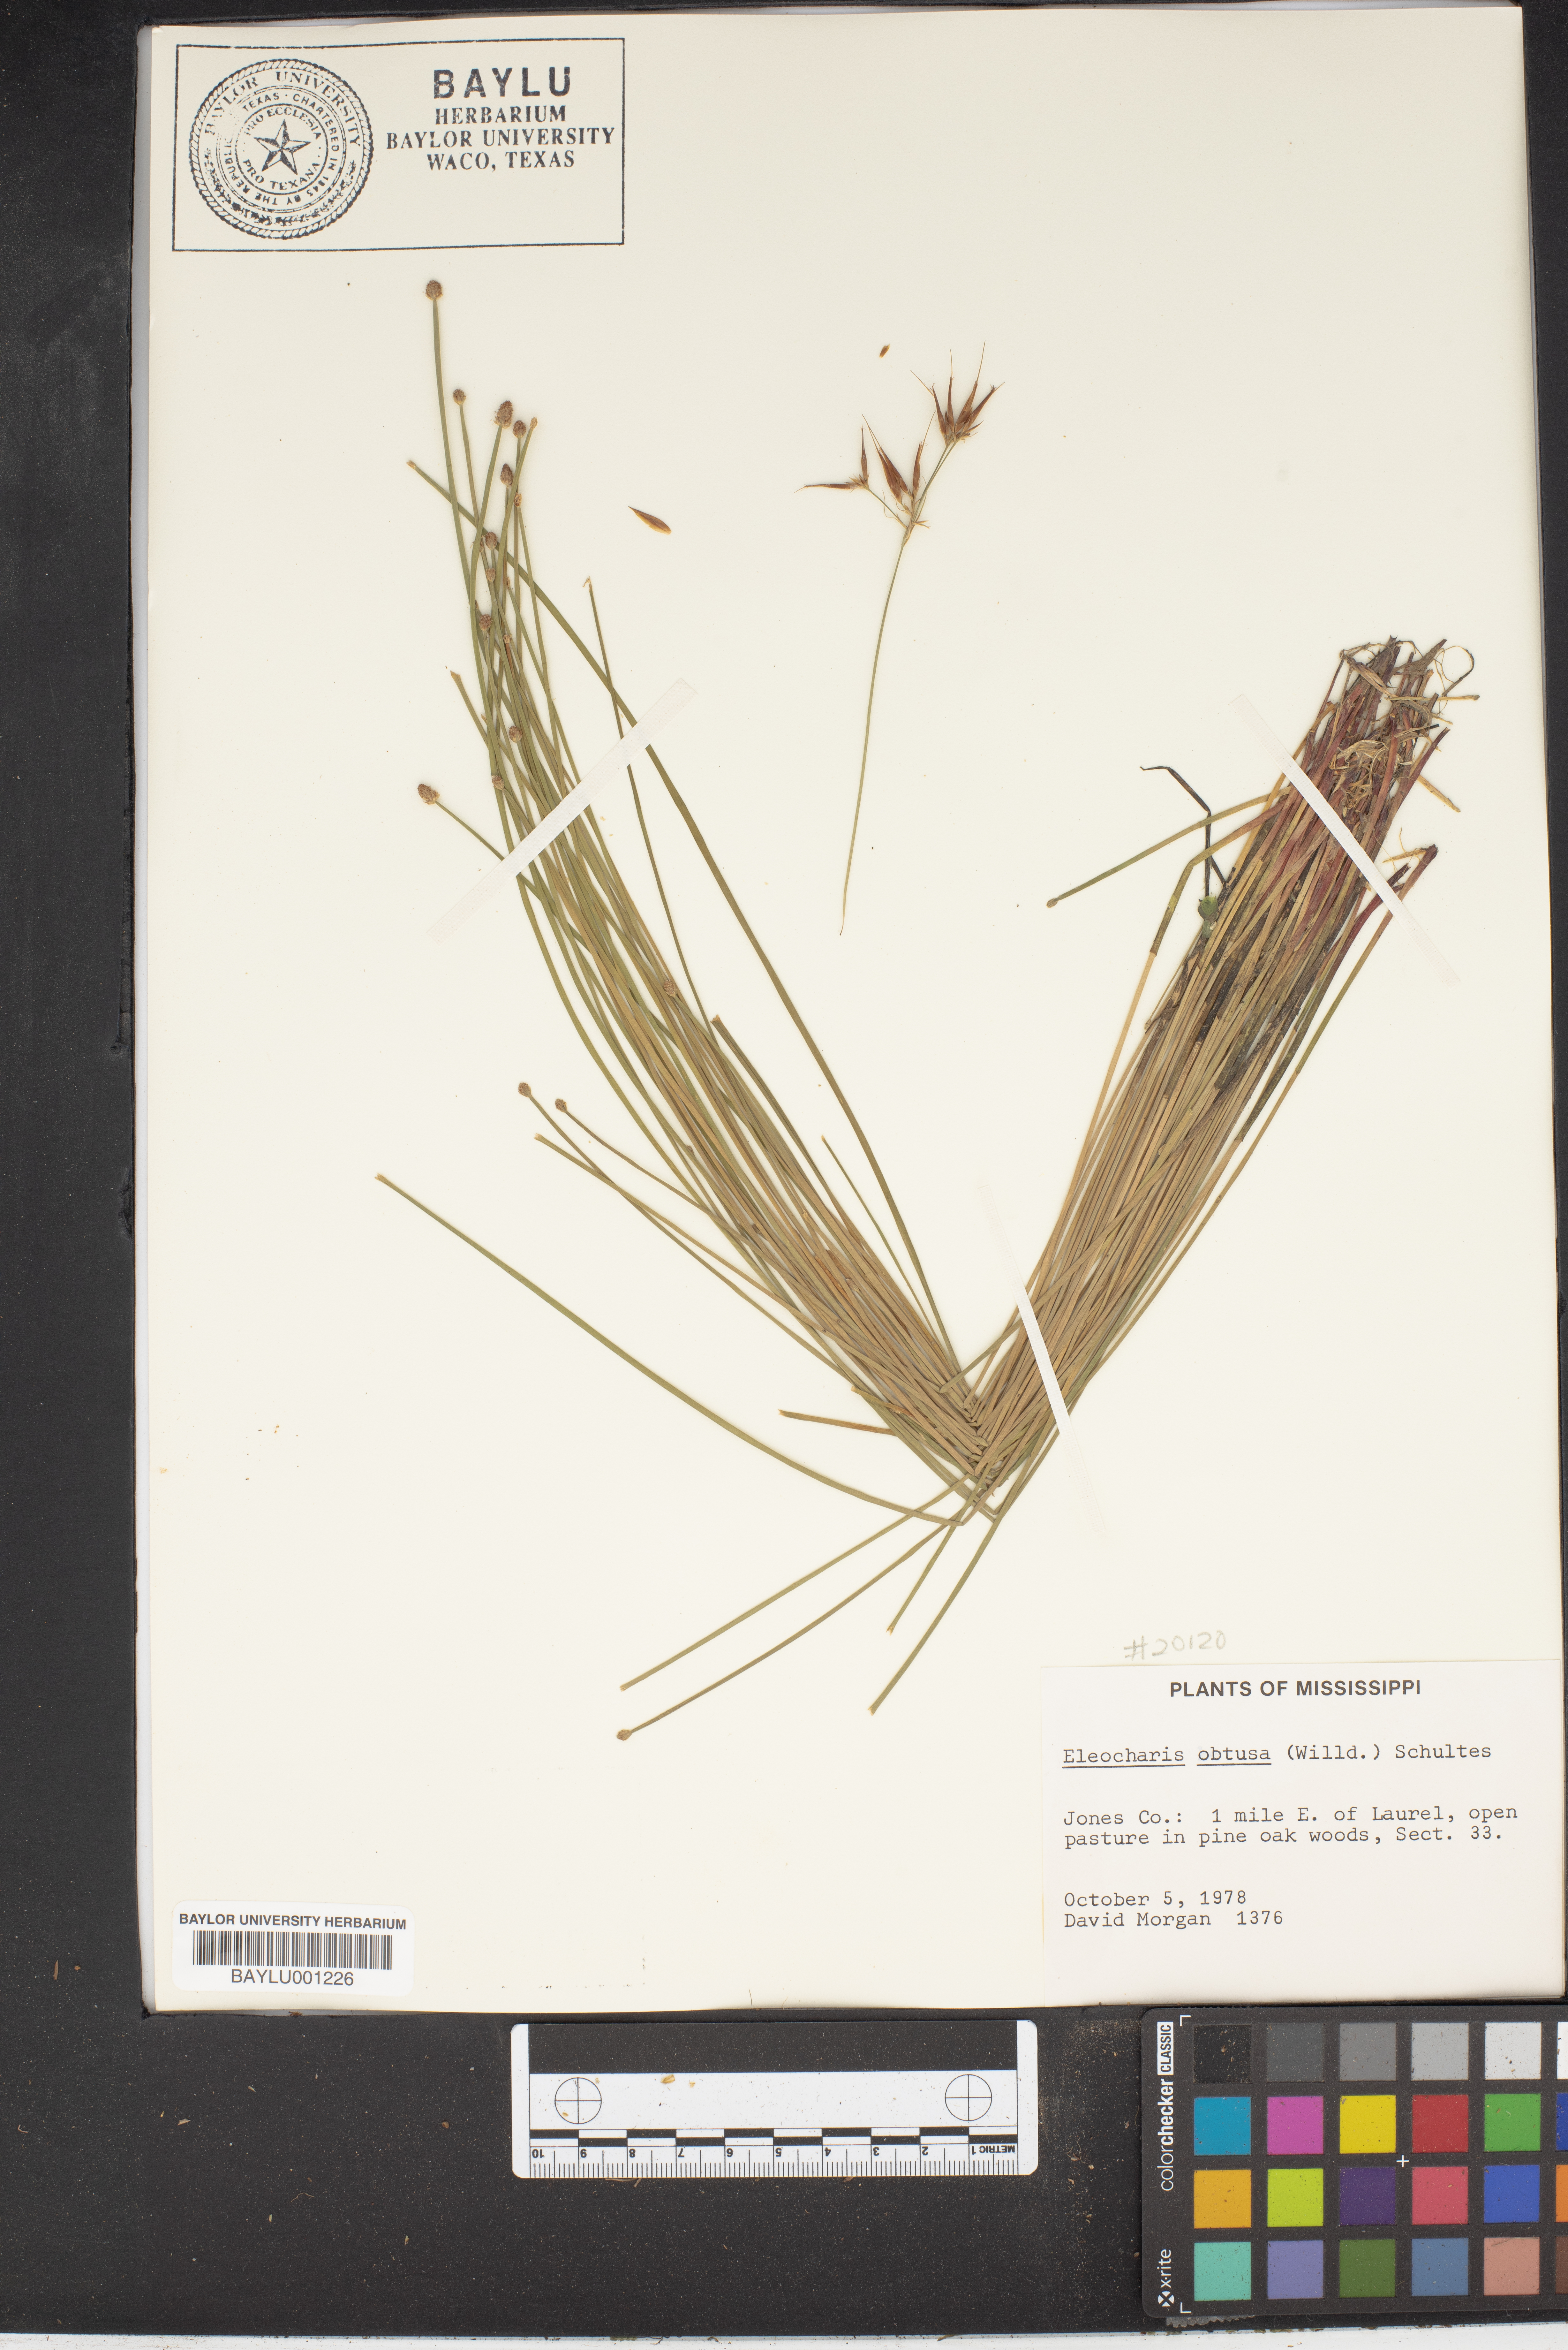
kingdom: Plantae
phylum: Tracheophyta
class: Liliopsida
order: Poales
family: Cyperaceae
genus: Eleocharis
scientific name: Eleocharis obtusa
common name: Blunt spikerush
